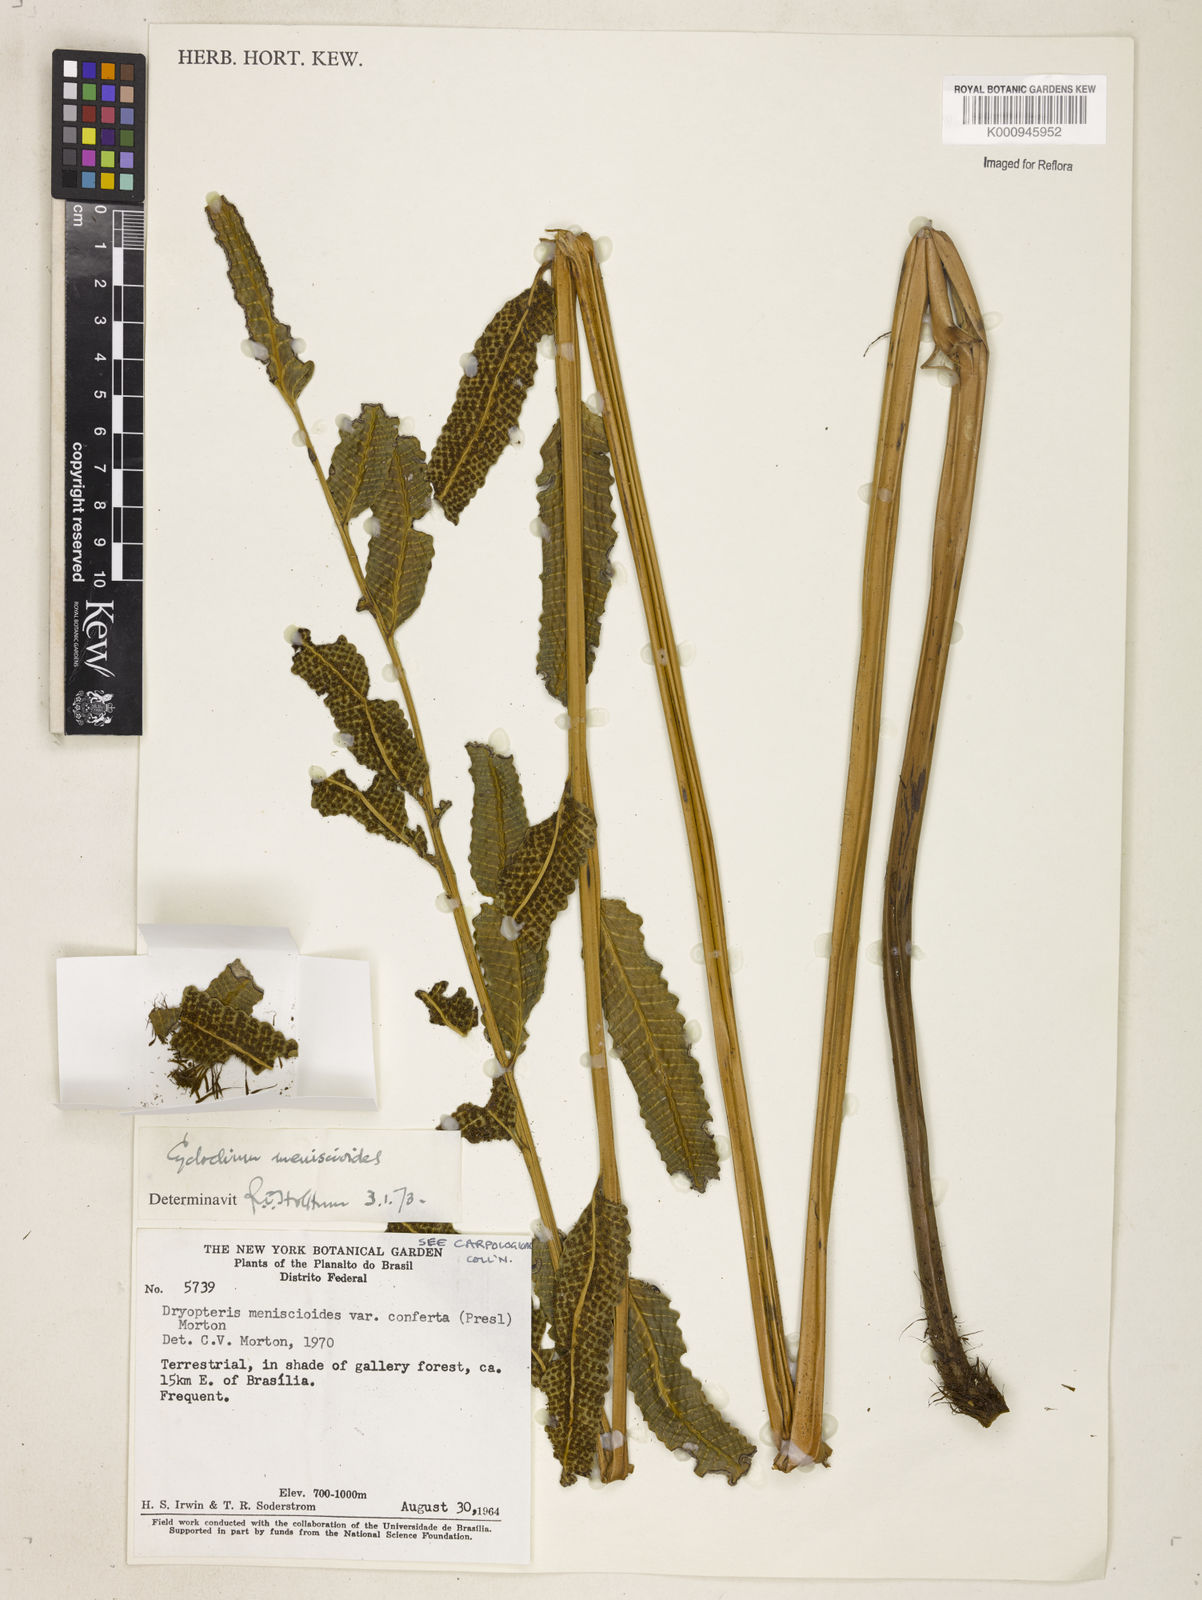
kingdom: Plantae
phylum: Tracheophyta
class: Polypodiopsida
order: Polypodiales
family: Dryopteridaceae
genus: Cyclodium
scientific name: Cyclodium meniscioides
